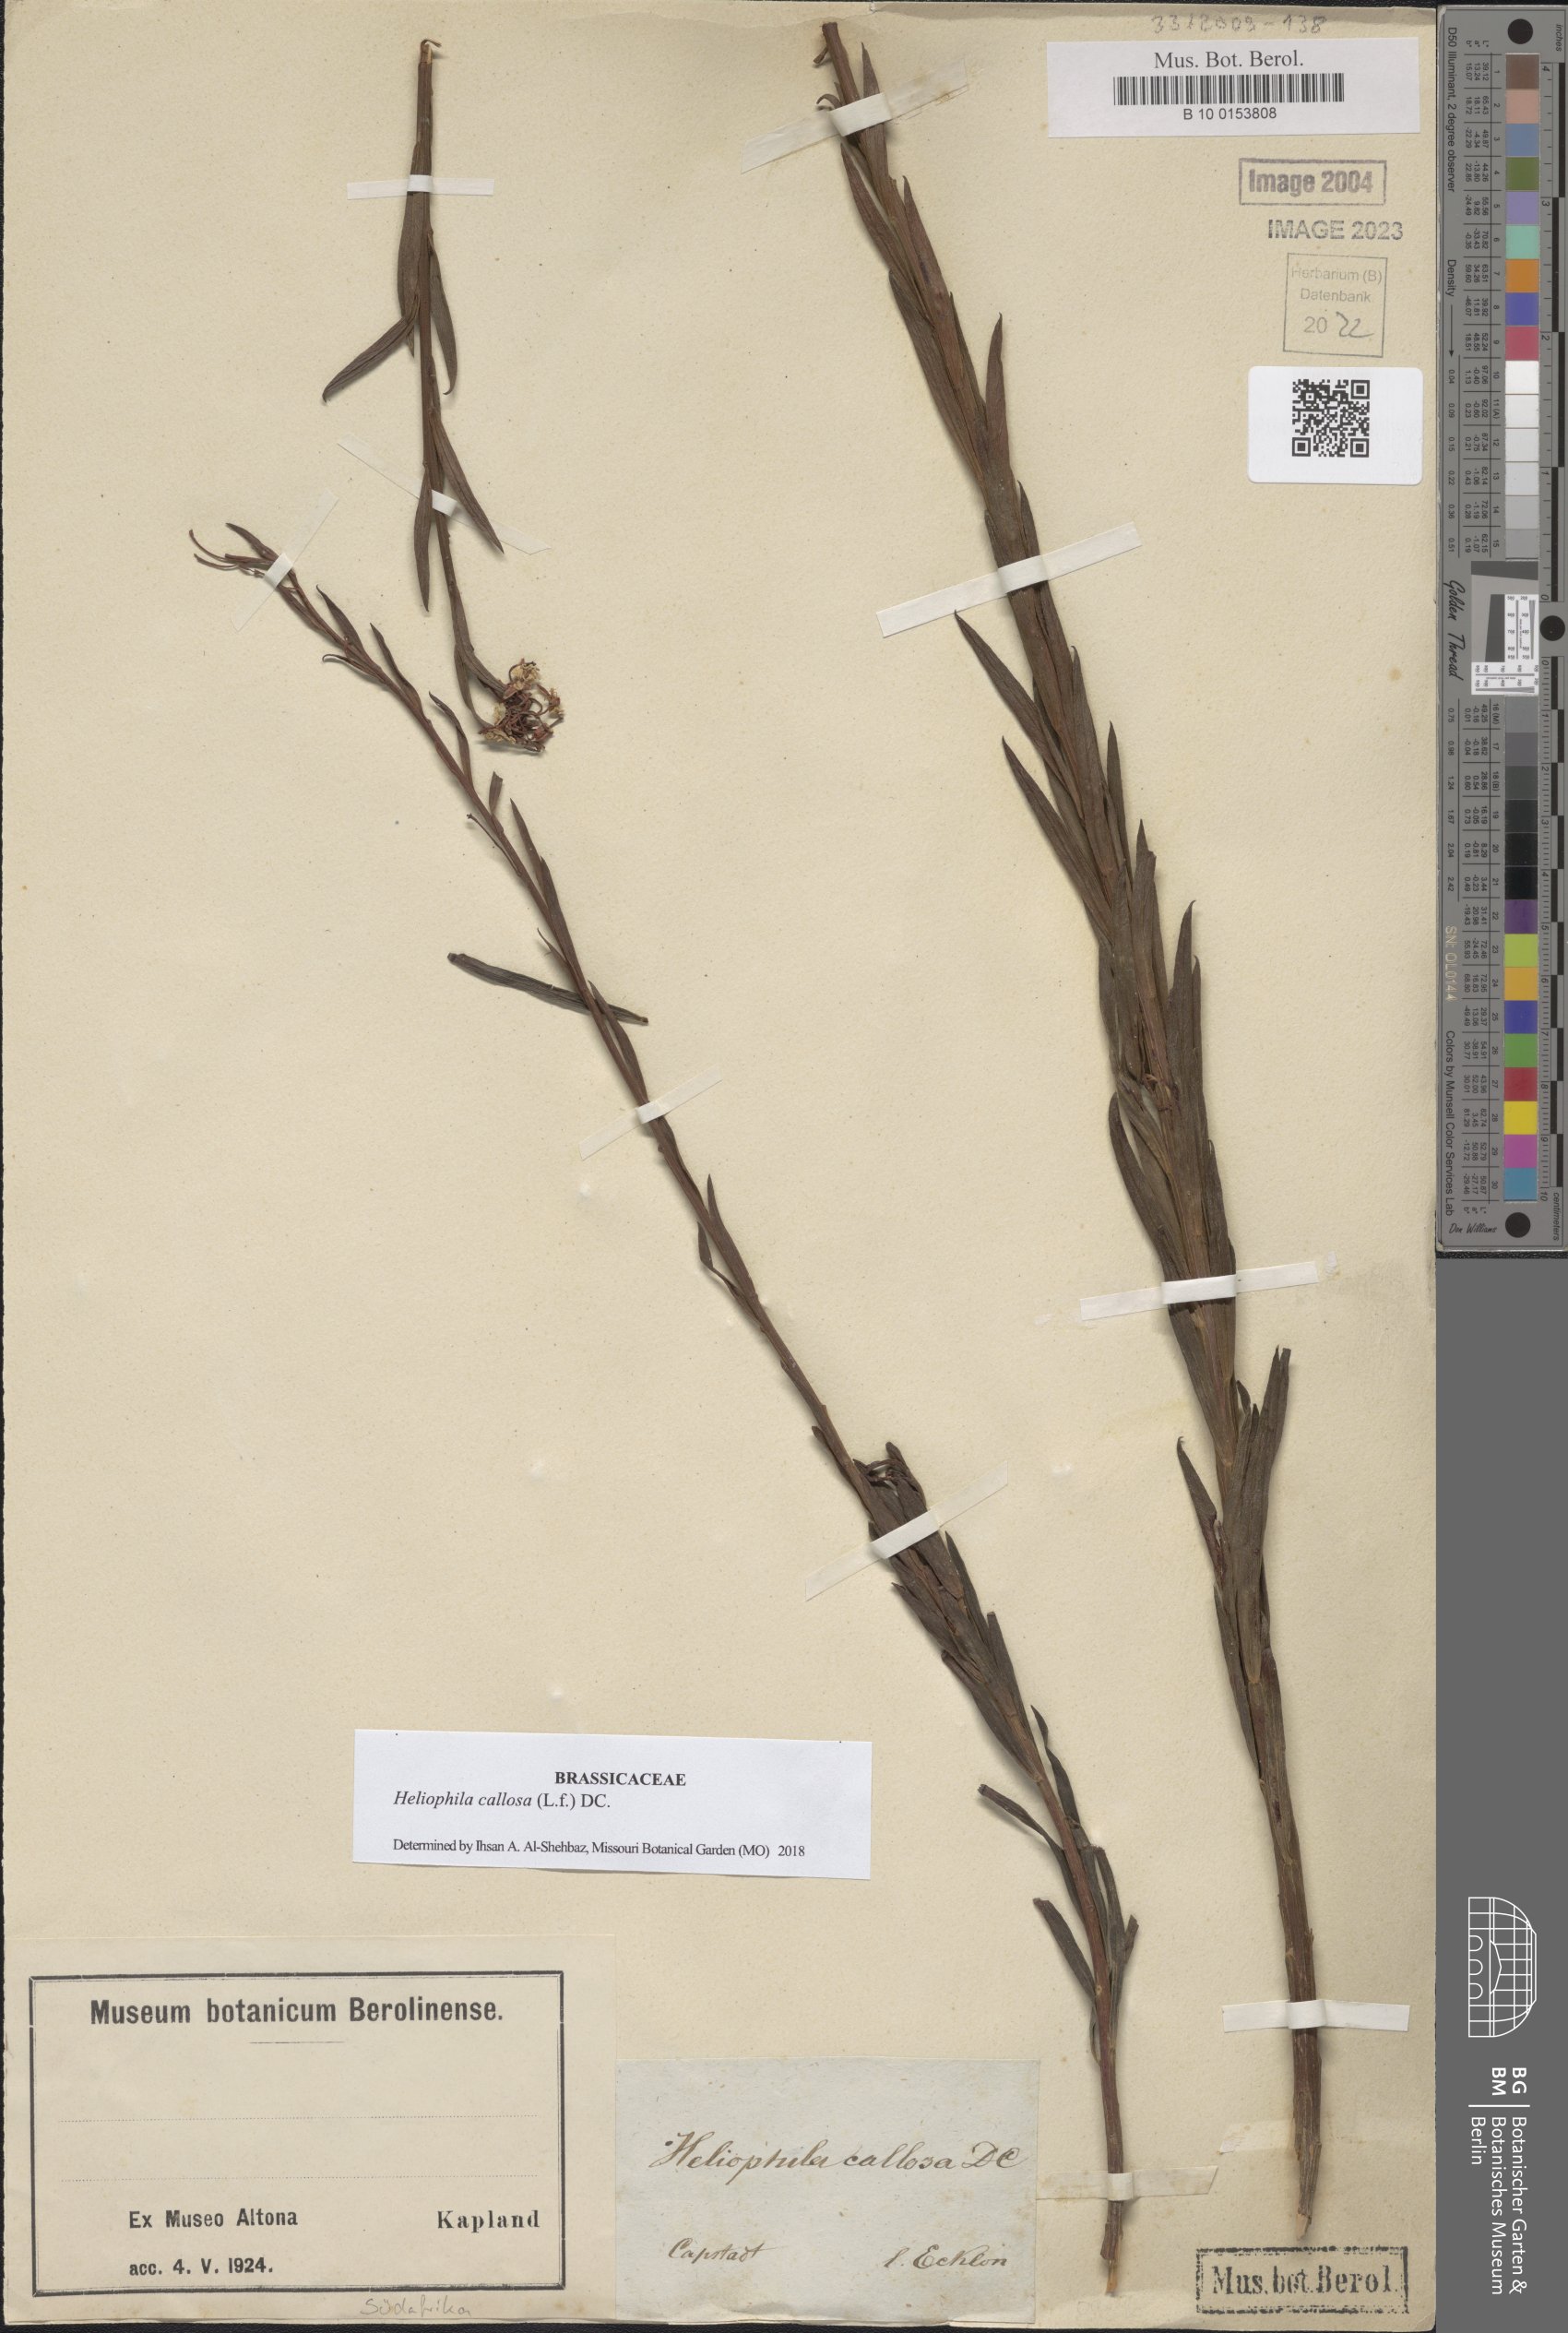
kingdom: Plantae
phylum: Tracheophyta
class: Magnoliopsida
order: Brassicales
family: Brassicaceae
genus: Heliophila
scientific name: Heliophila callosa
